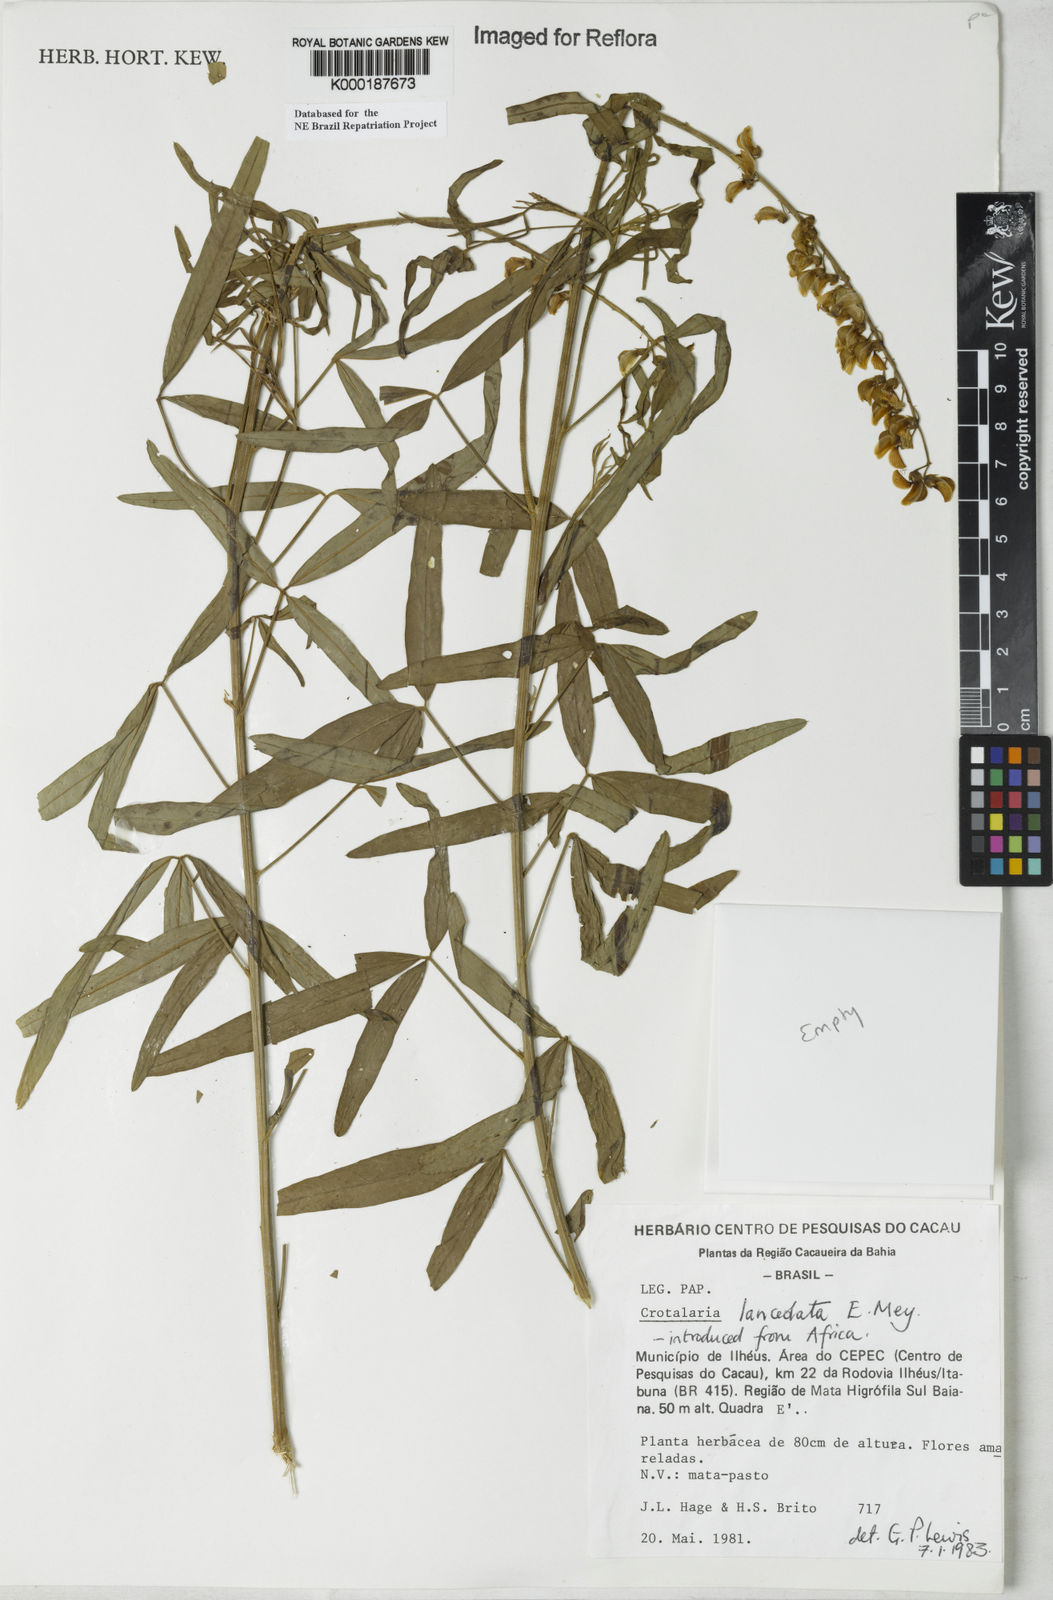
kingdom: Plantae
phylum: Tracheophyta
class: Magnoliopsida
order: Fabales
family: Fabaceae
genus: Crotalaria
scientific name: Crotalaria lanceolata
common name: Lanceleaf rattlebox
